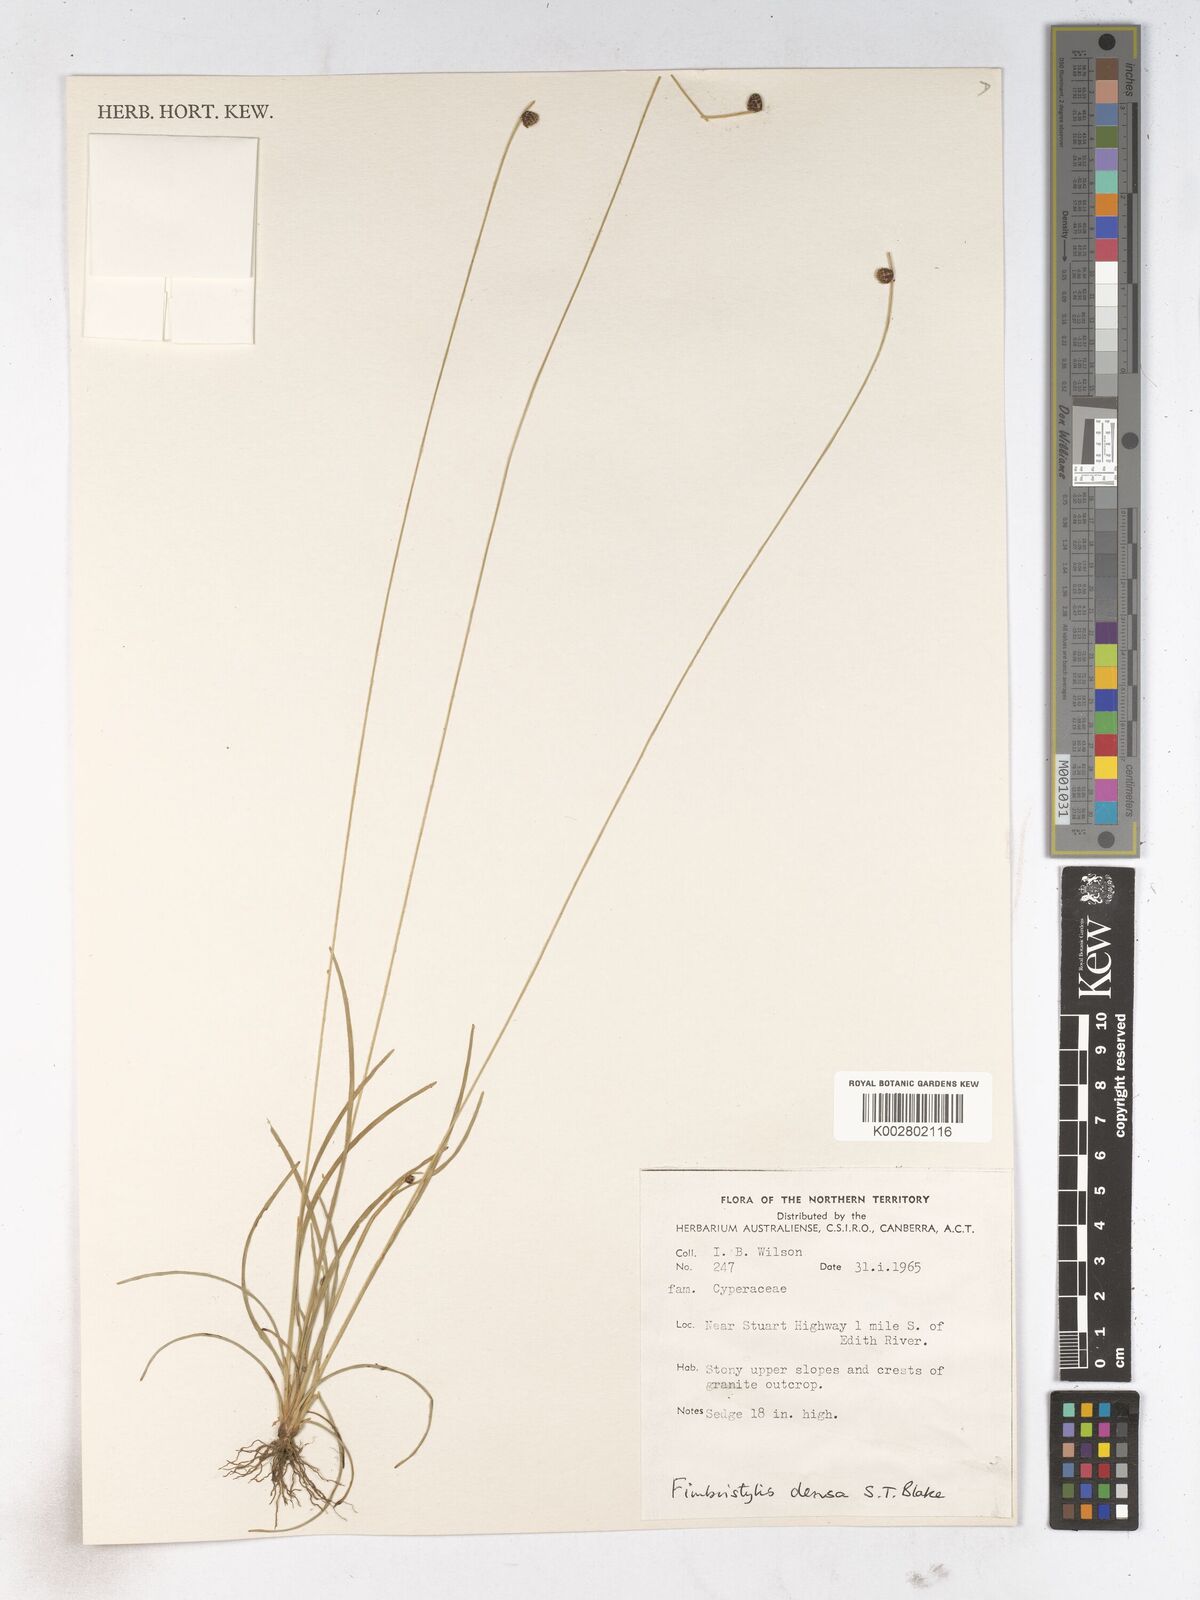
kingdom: Plantae
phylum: Tracheophyta
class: Liliopsida
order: Poales
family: Cyperaceae
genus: Fimbristylis
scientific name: Fimbristylis densa
